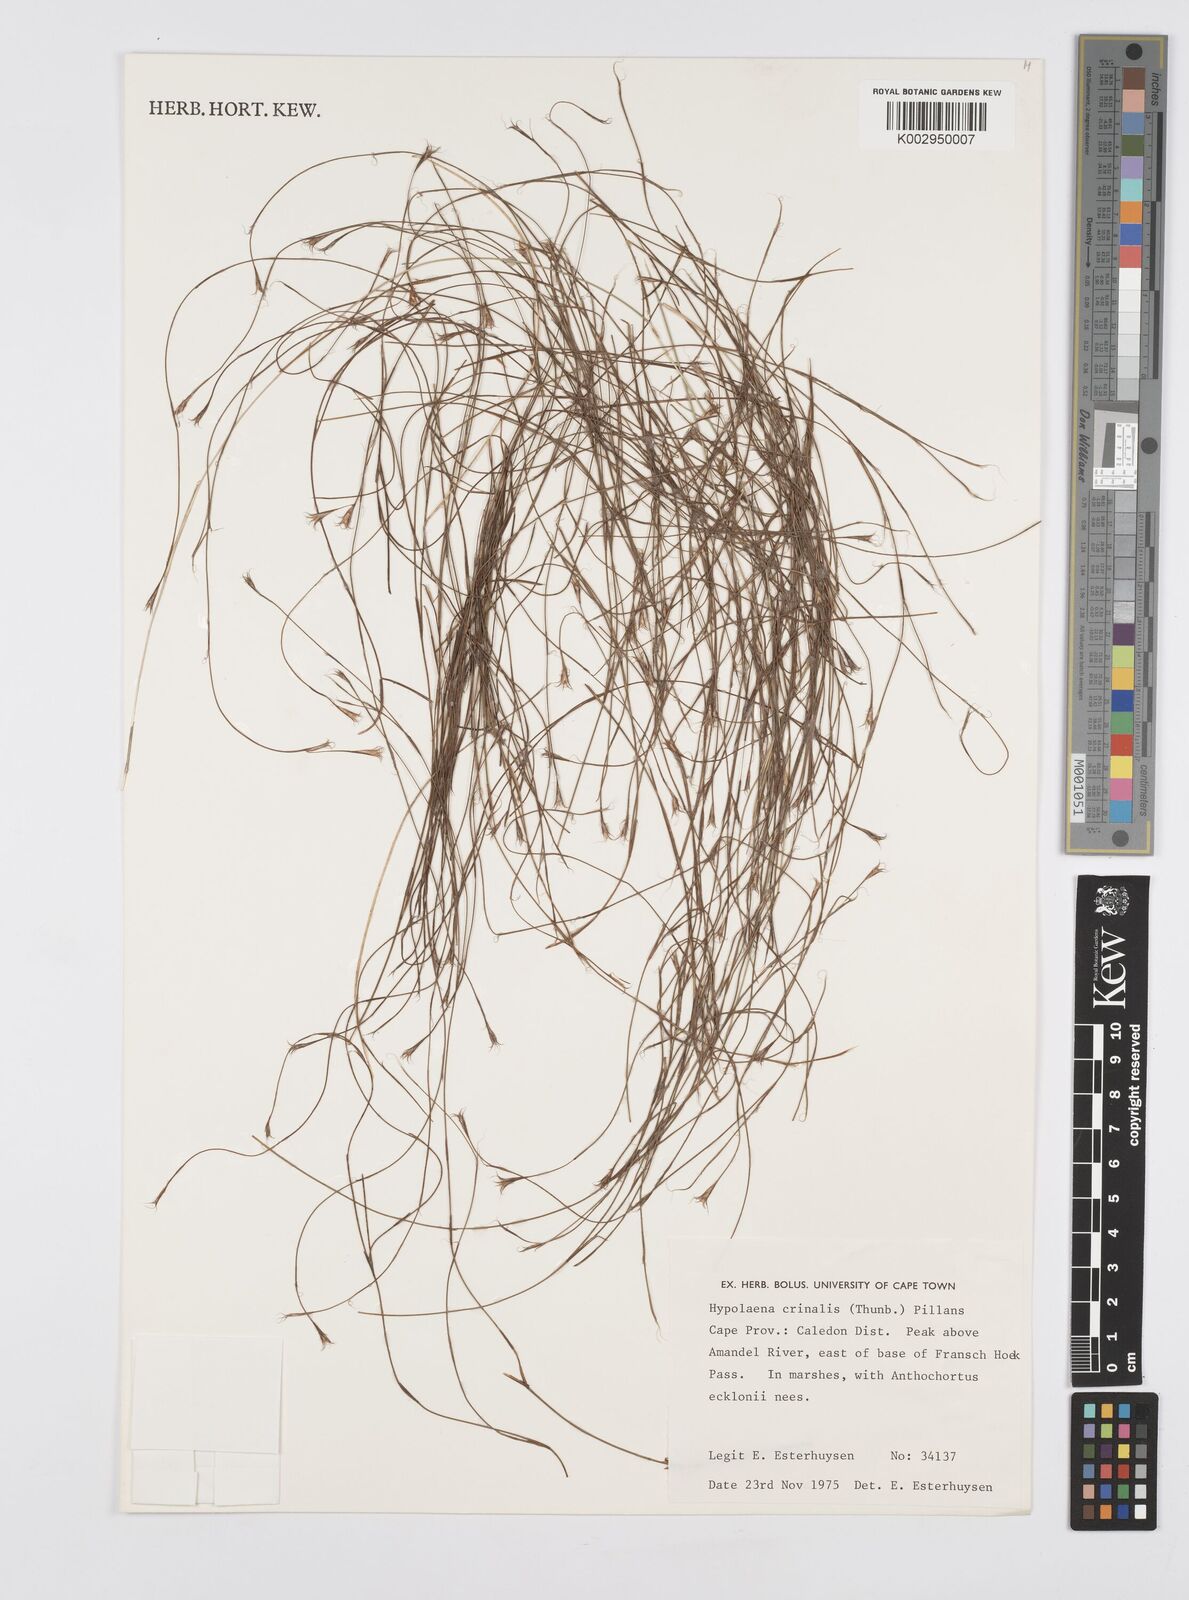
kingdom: Plantae
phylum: Tracheophyta
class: Liliopsida
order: Poales
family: Restionaceae
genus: Anthochortus
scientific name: Anthochortus crinalis
